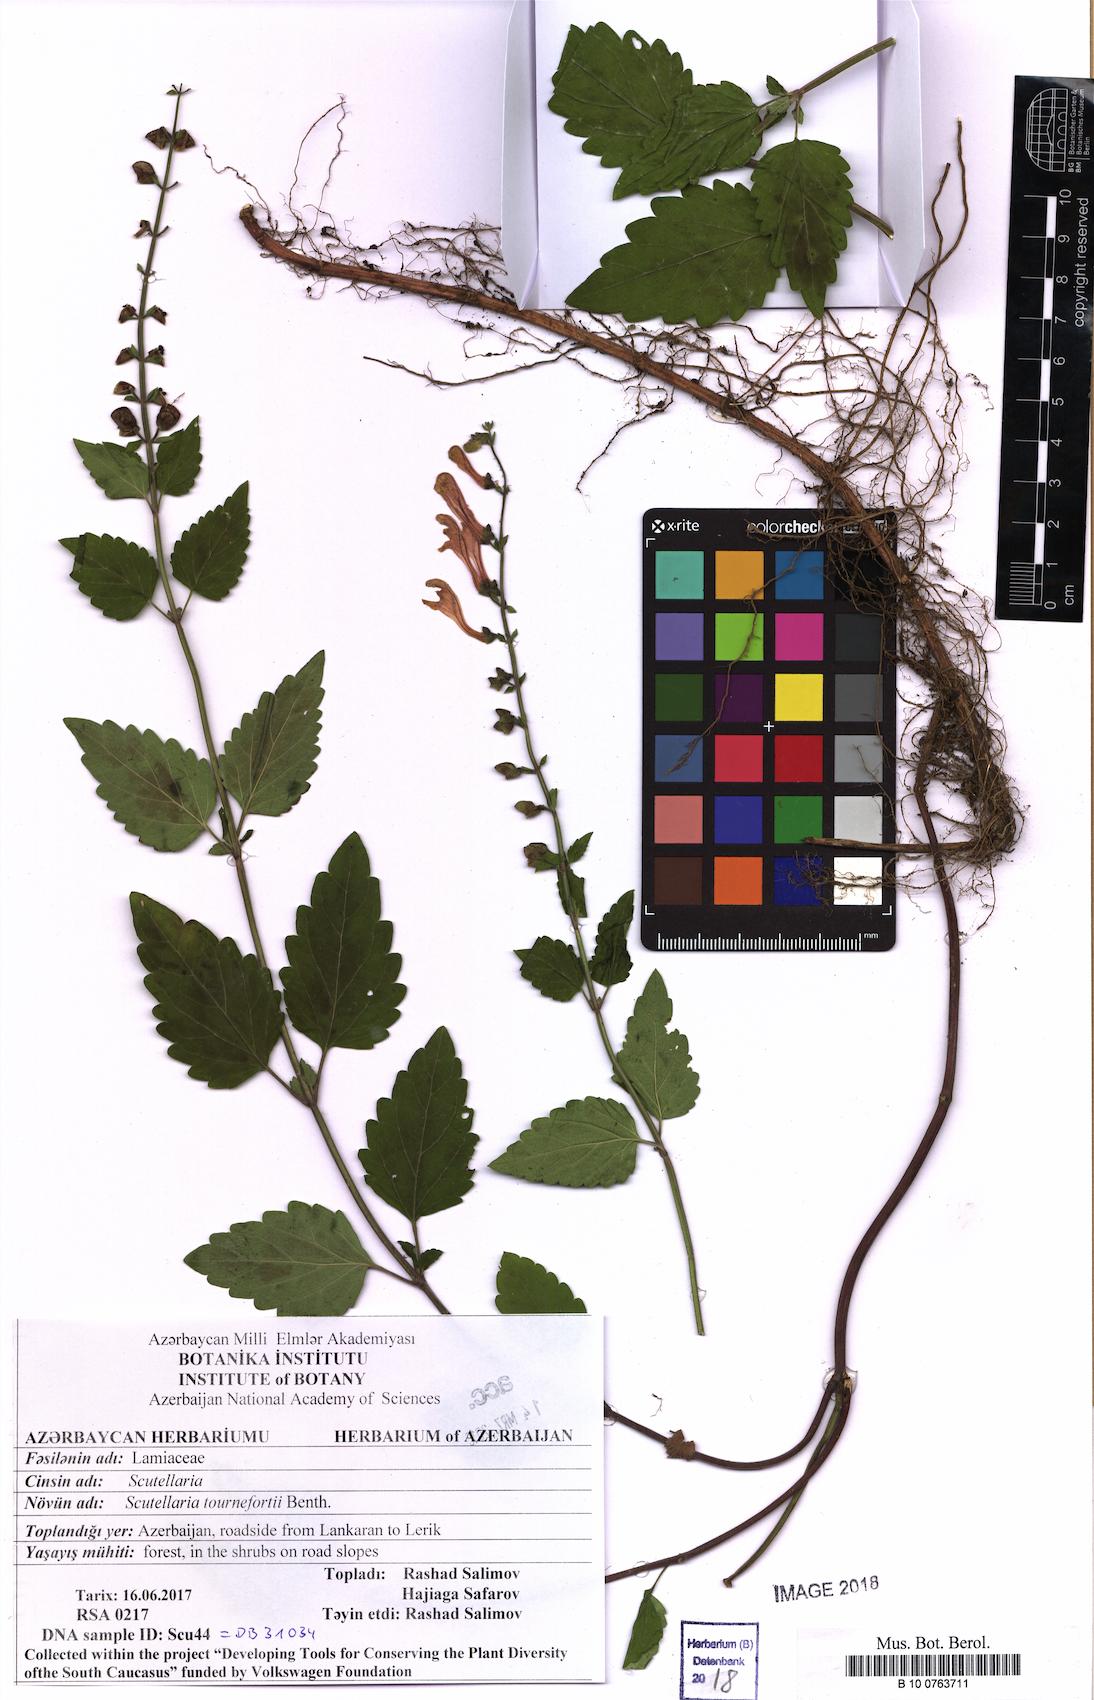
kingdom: Plantae
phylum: Tracheophyta
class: Magnoliopsida
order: Lamiales
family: Lamiaceae
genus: Scutellaria
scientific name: Scutellaria tournefortii
